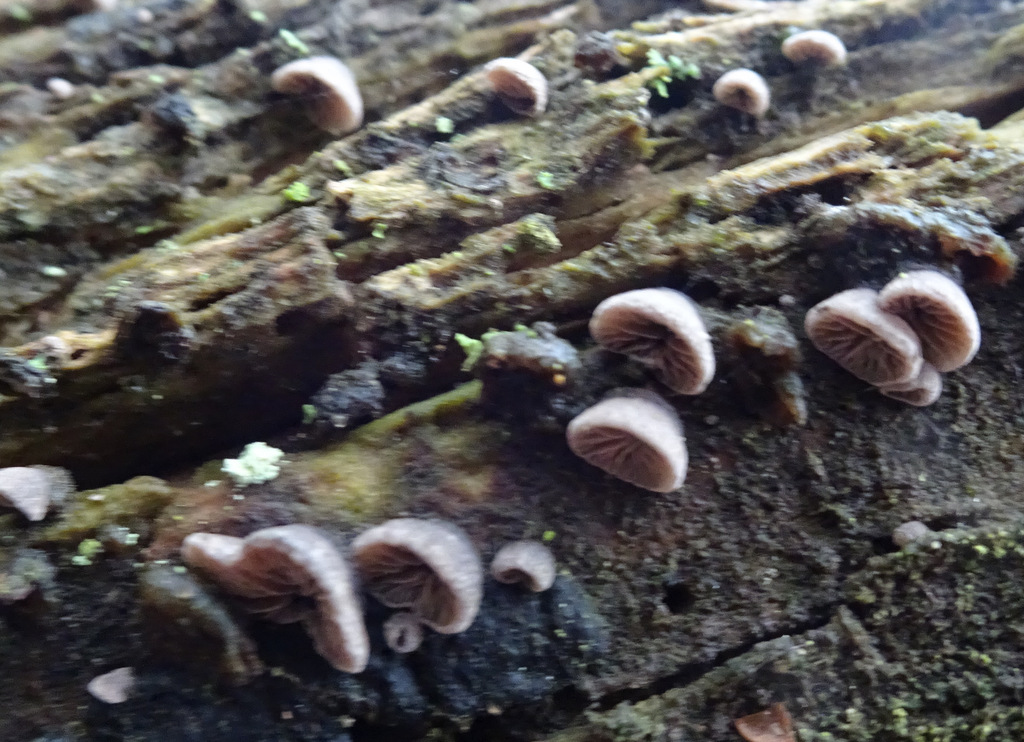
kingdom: Fungi
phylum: Basidiomycota
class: Agaricomycetes
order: Agaricales
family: Pleurotaceae
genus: Resupinatus
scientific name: Resupinatus trichotis
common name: mørkfiltet barkhat
